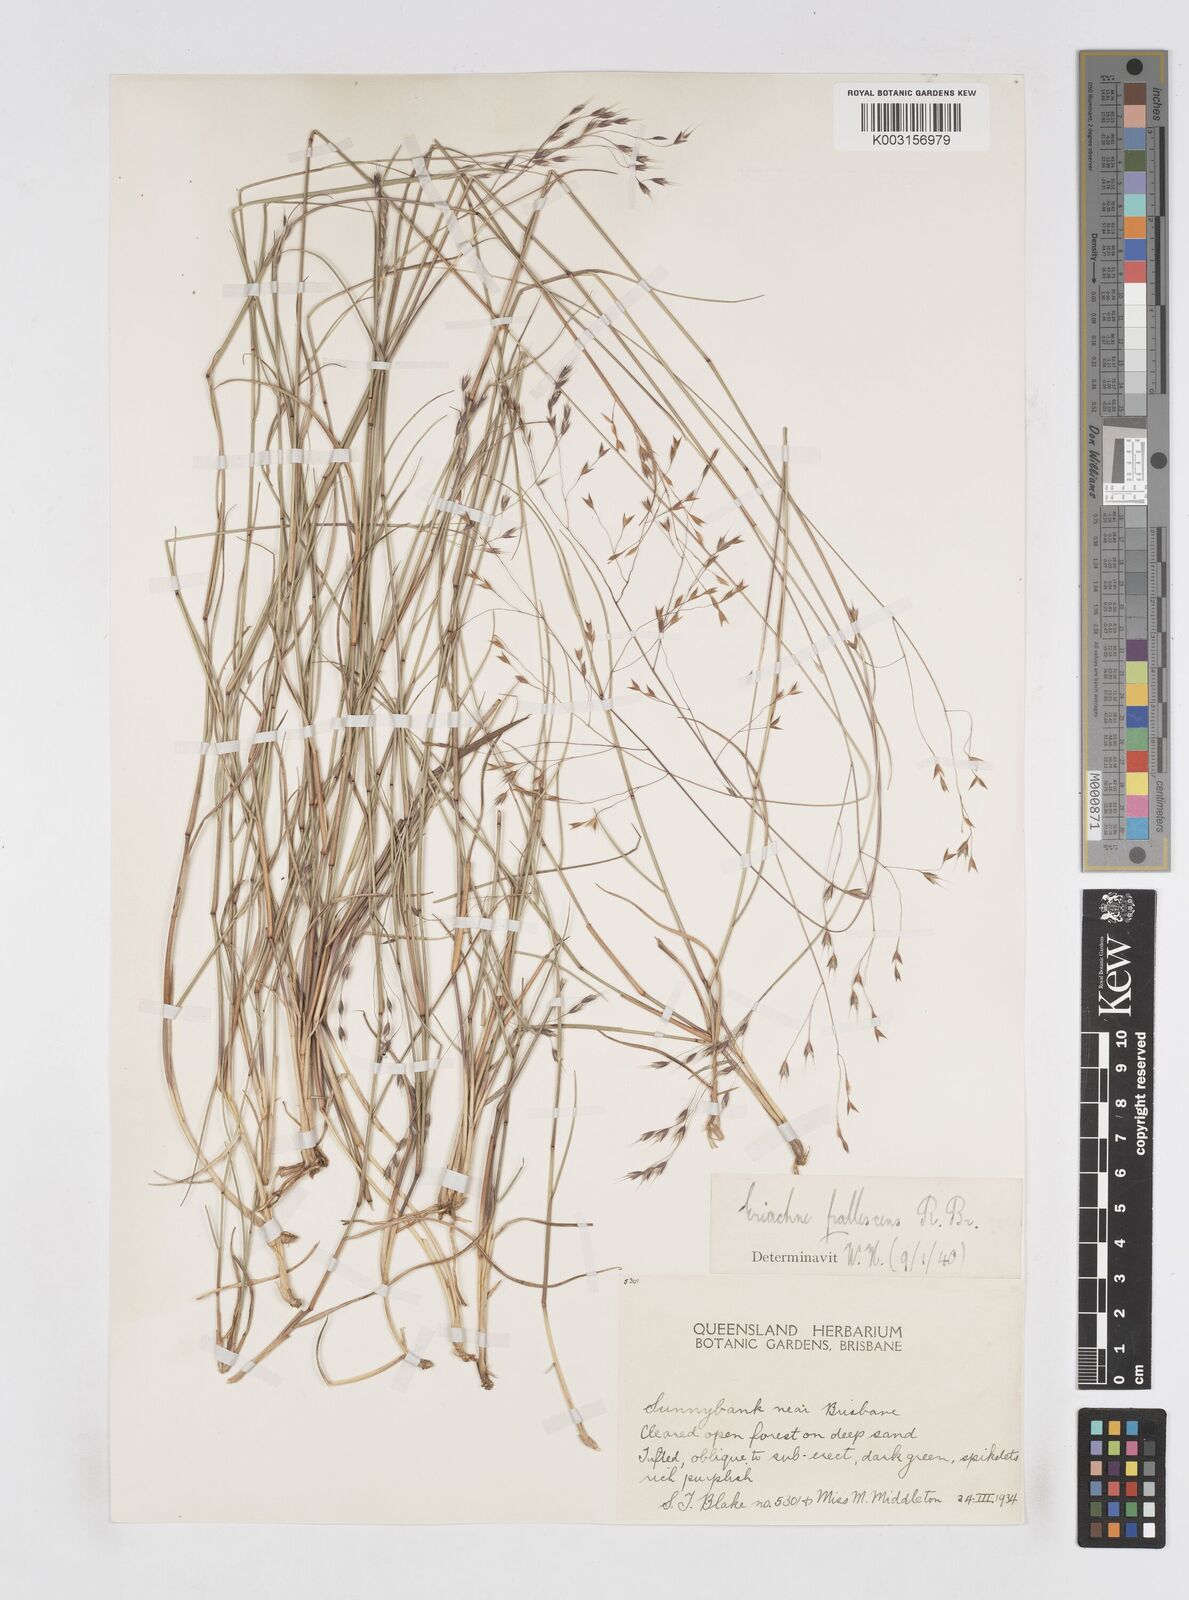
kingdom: Plantae
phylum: Tracheophyta
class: Liliopsida
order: Poales
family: Poaceae
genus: Eriachne
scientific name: Eriachne pallescens
